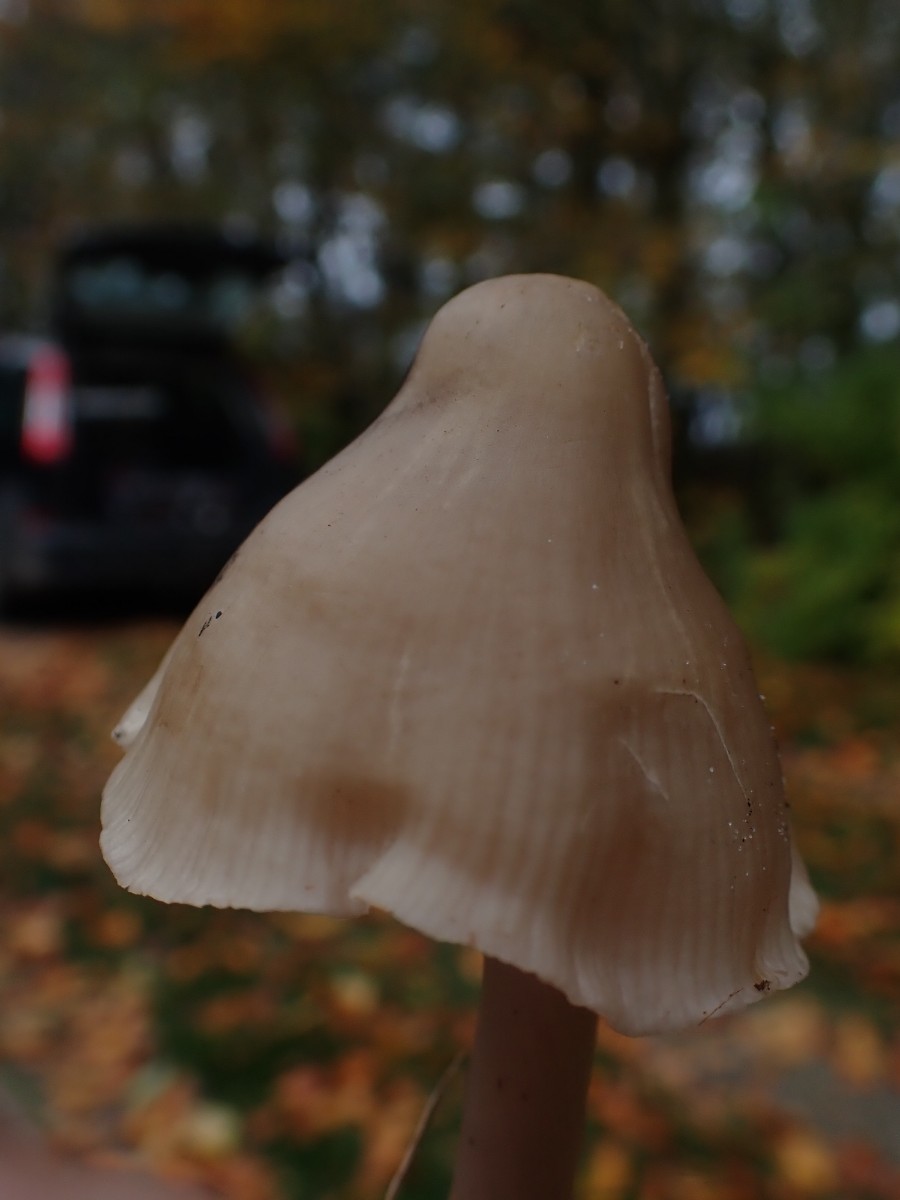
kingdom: Fungi
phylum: Basidiomycota
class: Agaricomycetes
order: Agaricales
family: Mycenaceae
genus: Mycena
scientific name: Mycena galericulata
